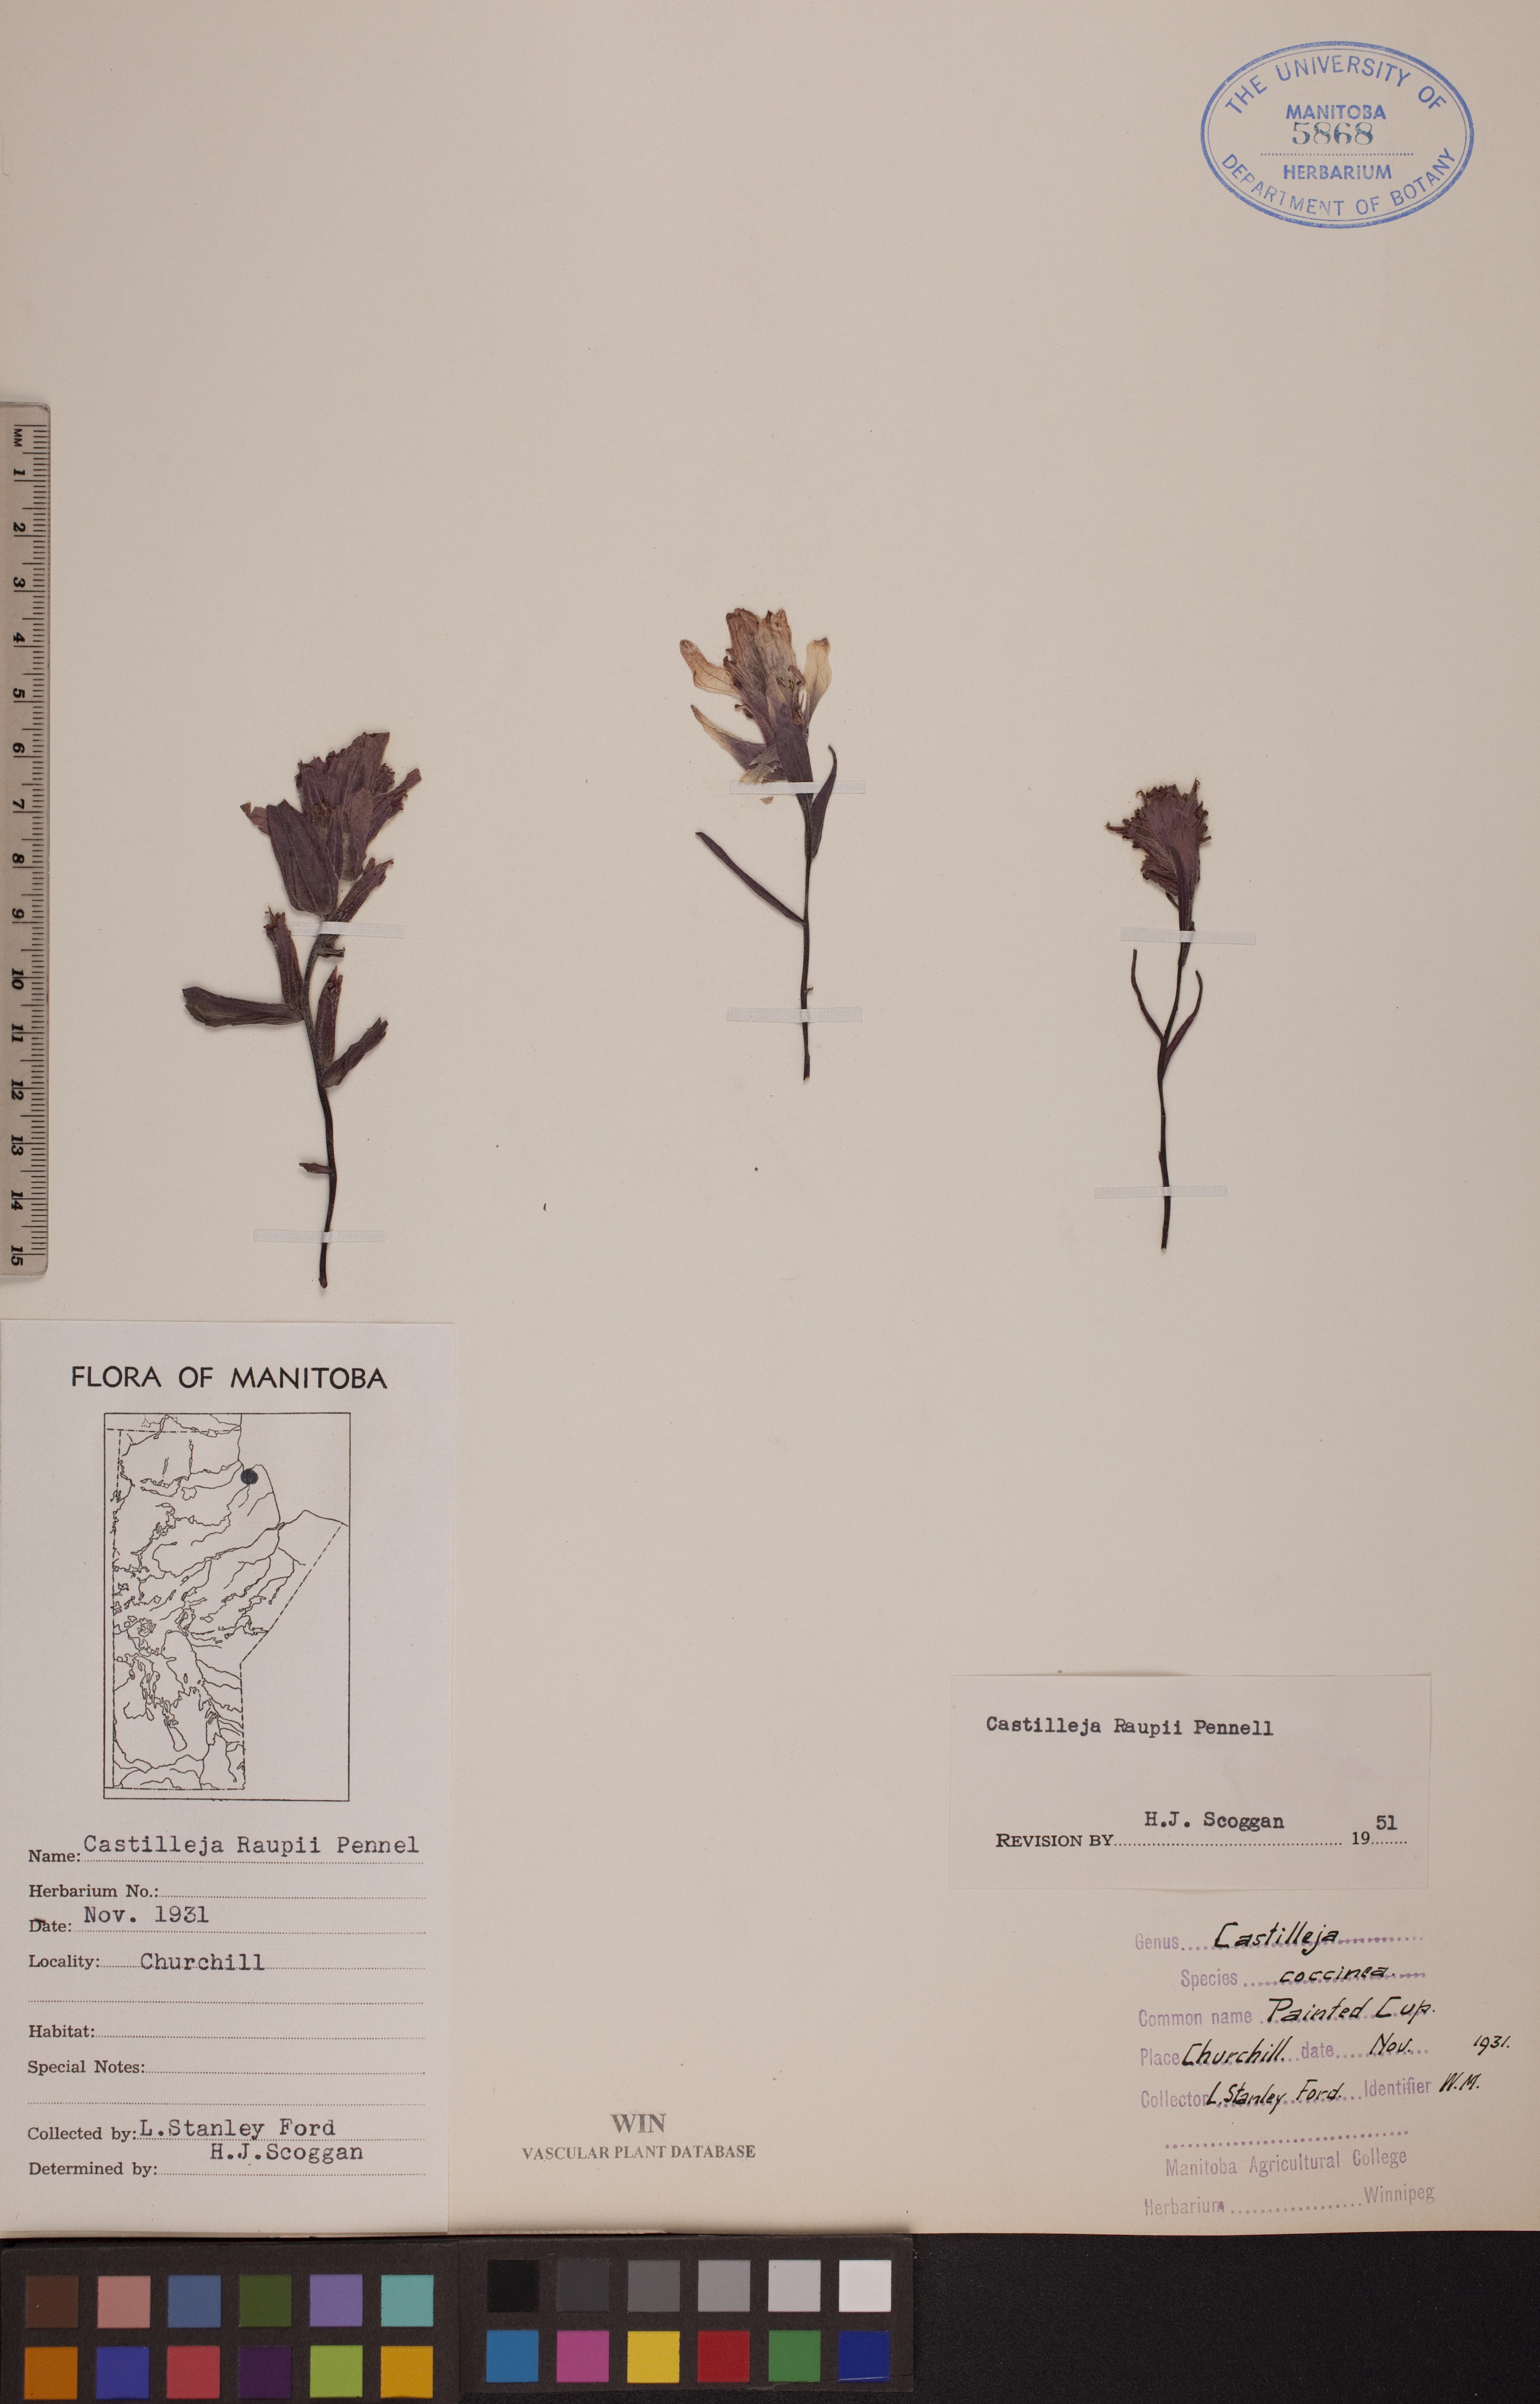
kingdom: Plantae
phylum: Tracheophyta
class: Magnoliopsida
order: Lamiales
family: Orobanchaceae
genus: Castilleja
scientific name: Castilleja raupii
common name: Raup's paintbrush
